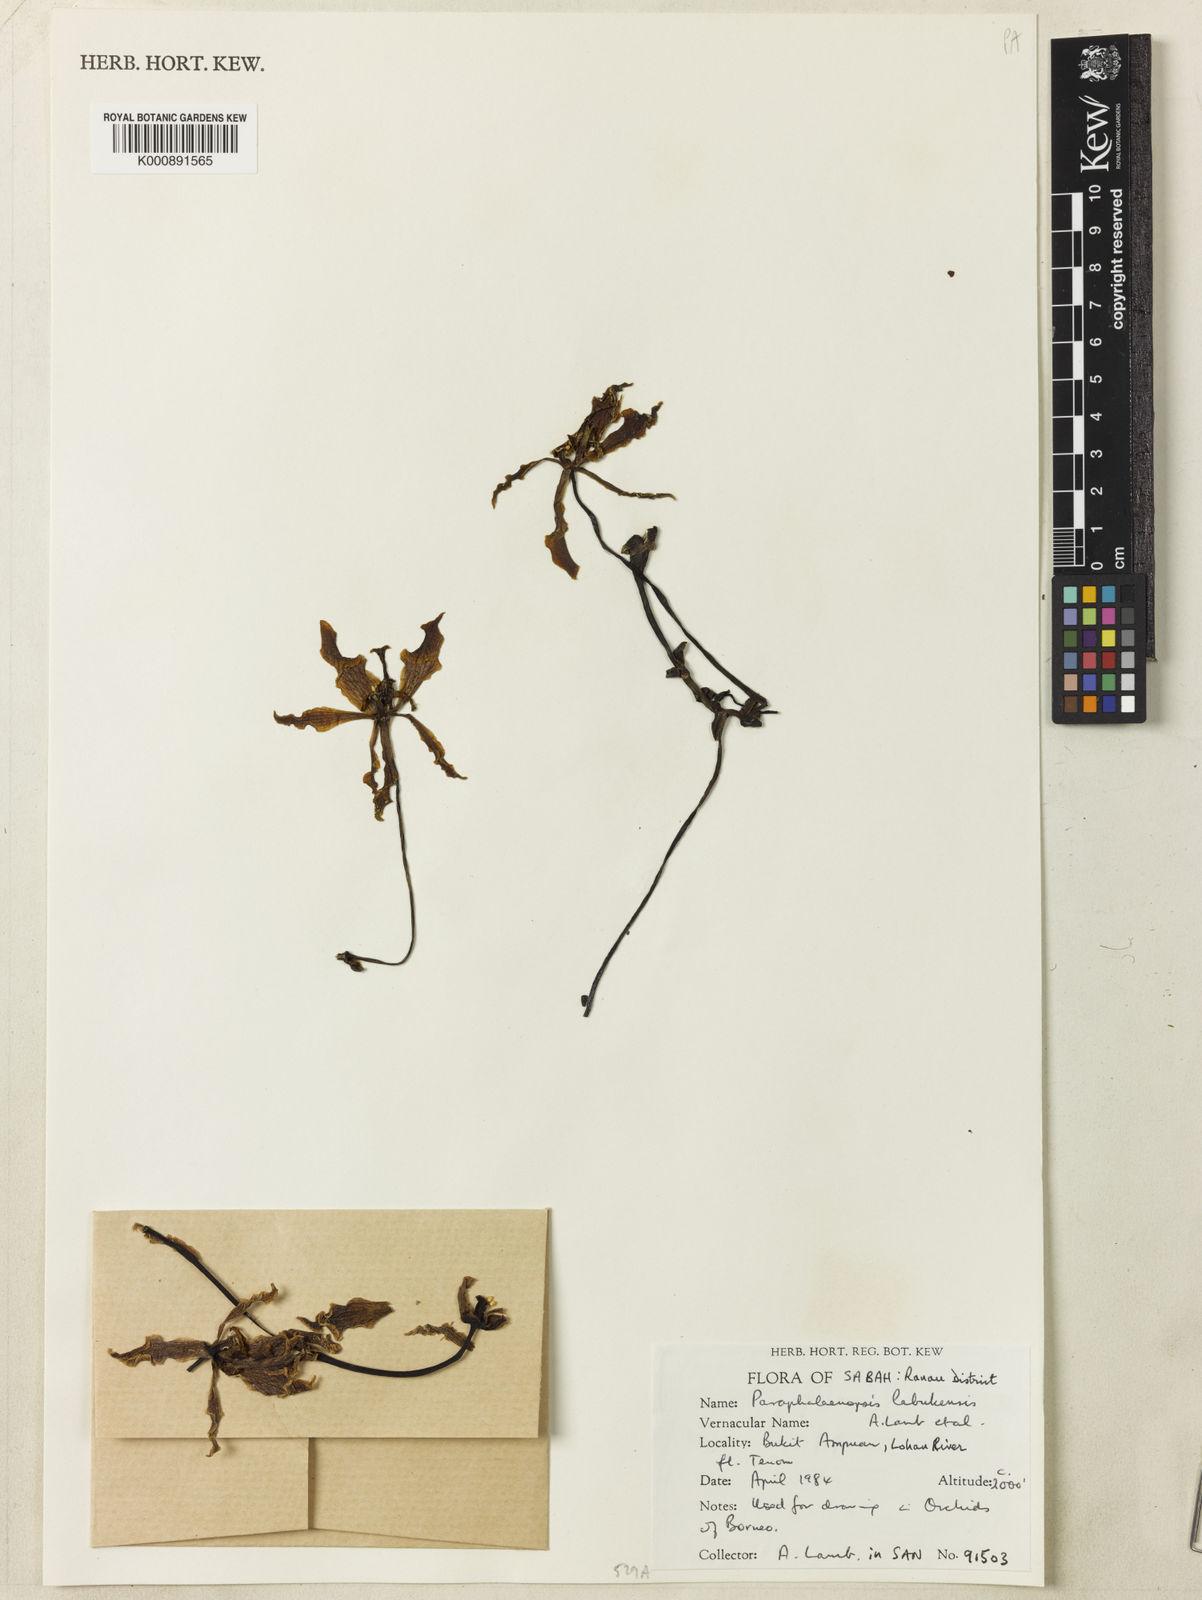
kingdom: Plantae
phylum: Tracheophyta
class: Liliopsida
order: Asparagales
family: Orchidaceae
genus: Paraphalaenopsis
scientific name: Paraphalaenopsis labukensis
